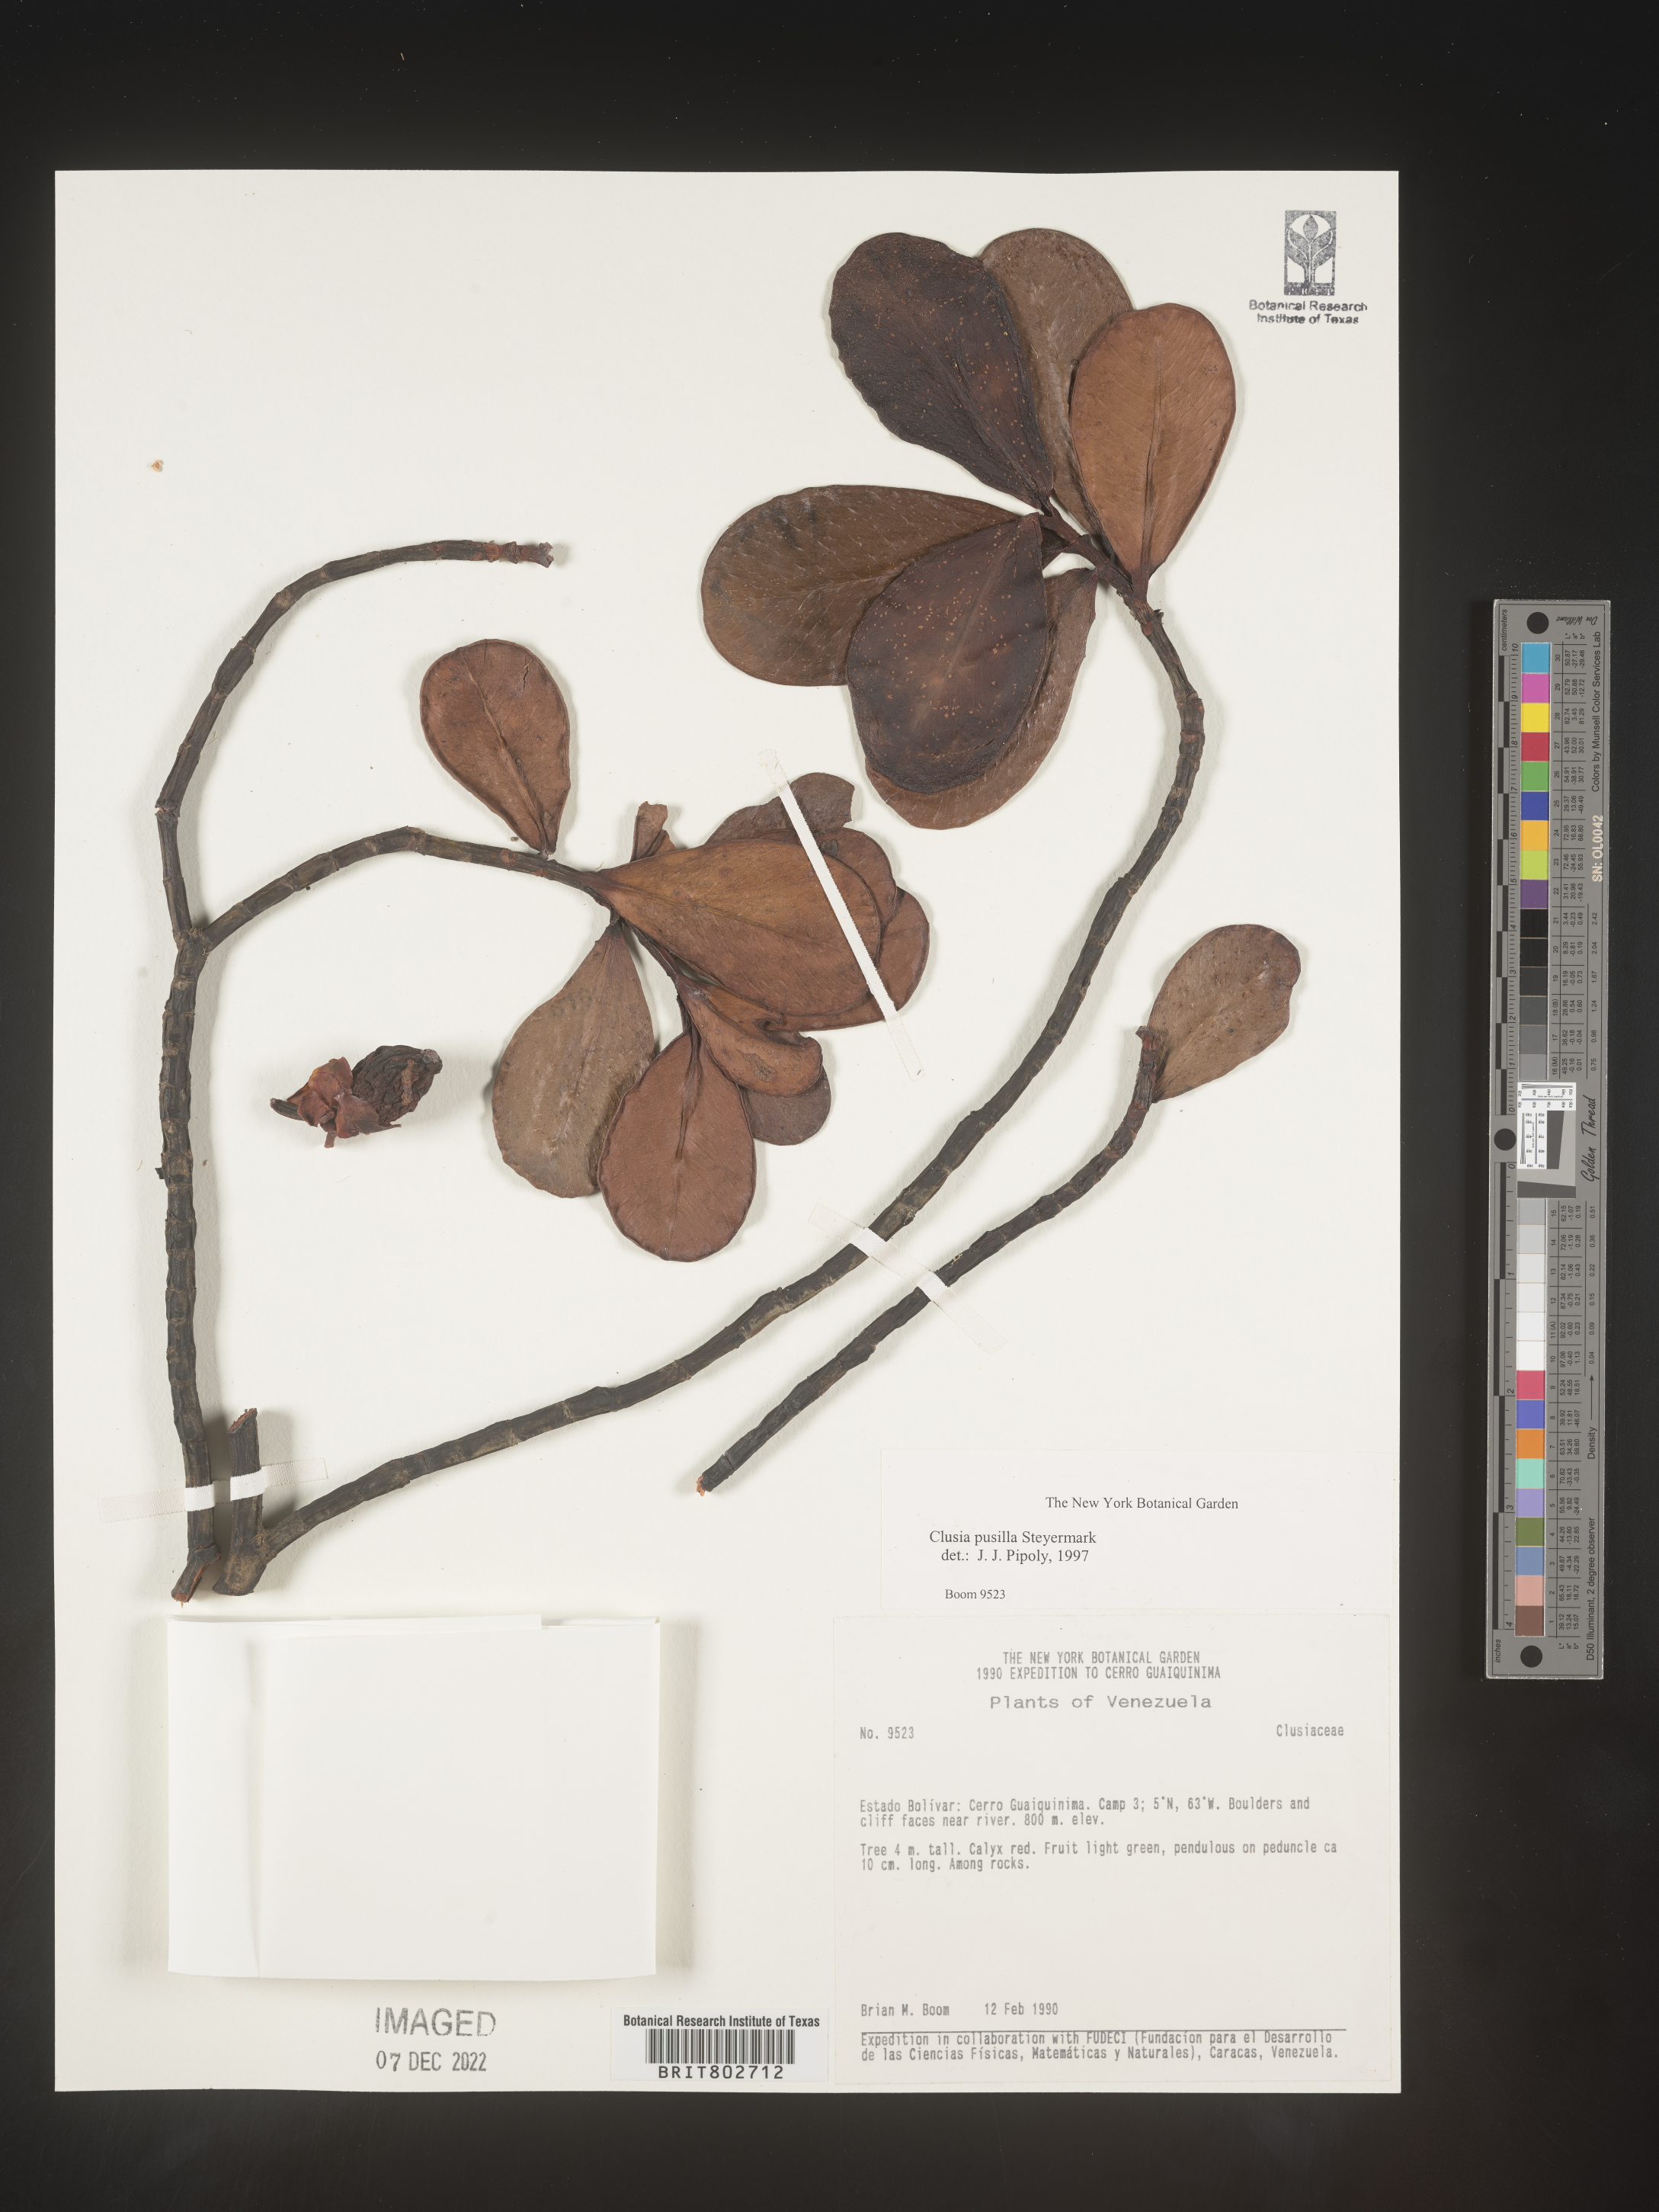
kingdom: Plantae
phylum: Tracheophyta
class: Magnoliopsida
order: Malpighiales
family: Clusiaceae
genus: Clusia
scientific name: Clusia pusilla
